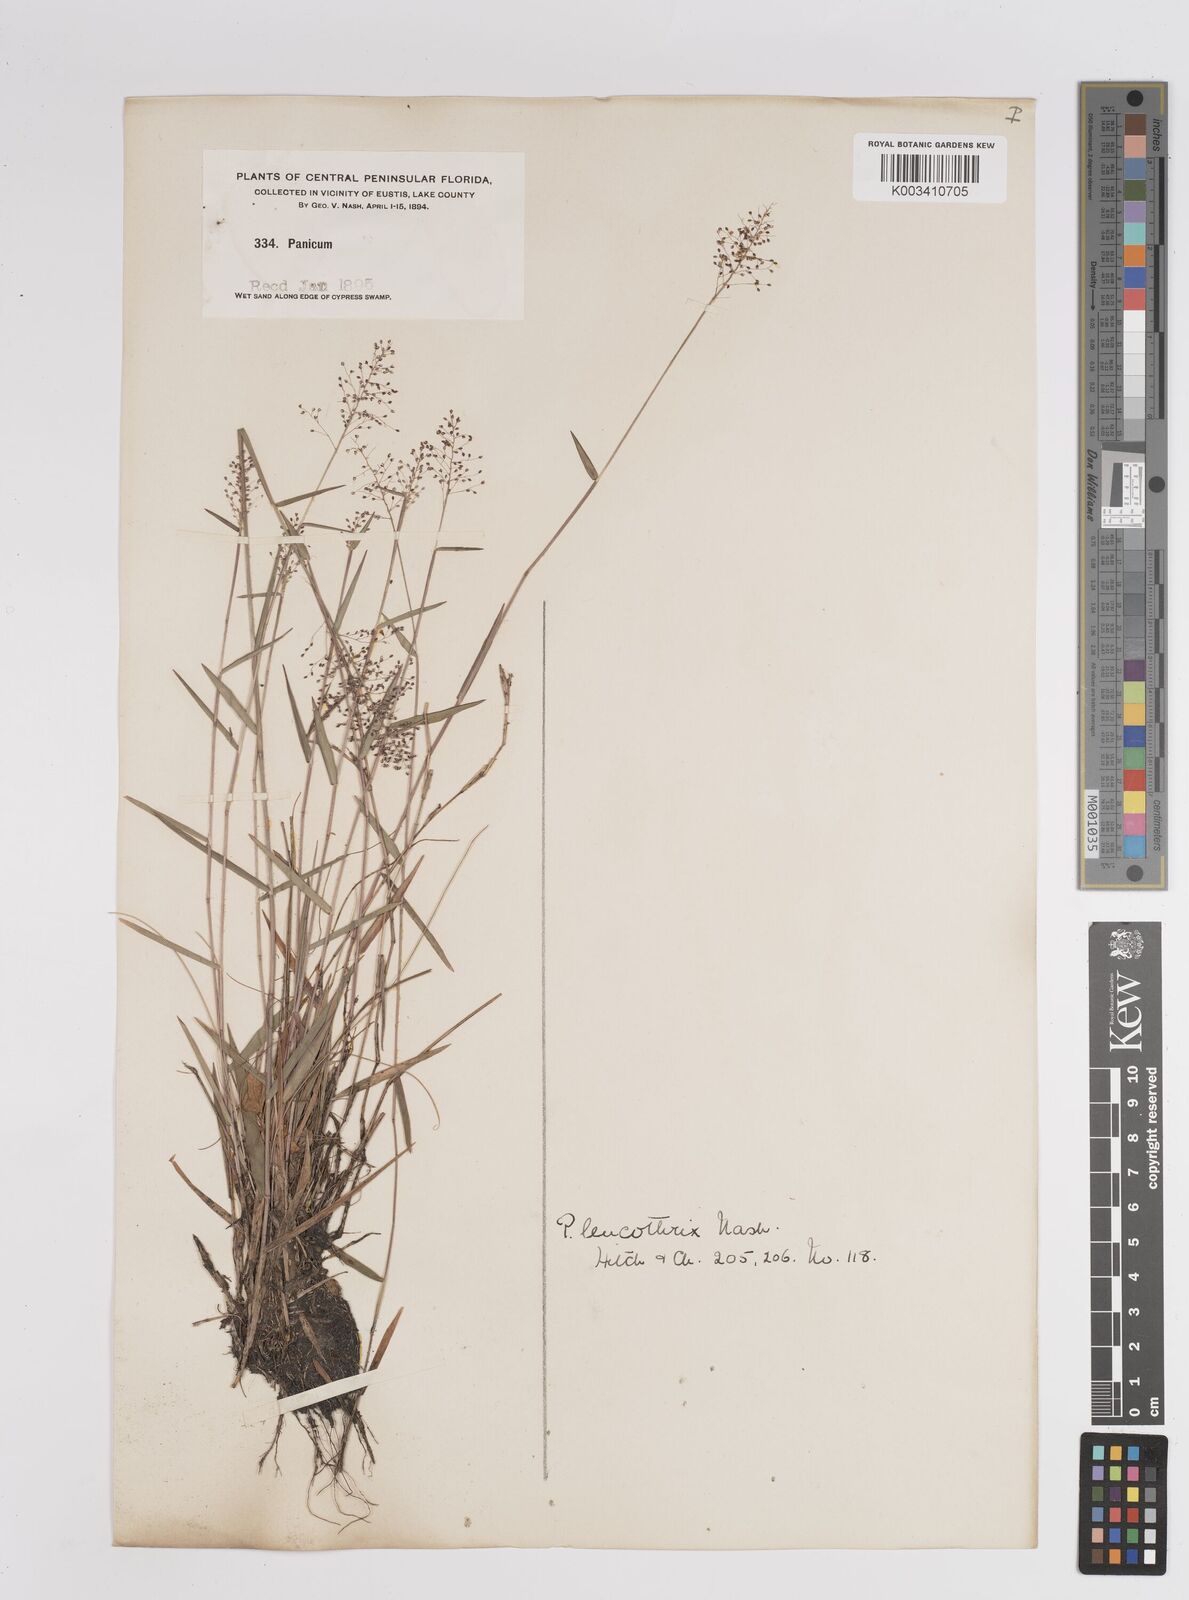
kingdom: Plantae
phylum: Tracheophyta
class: Liliopsida
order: Poales
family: Poaceae
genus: Dichanthelium
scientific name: Dichanthelium leucothrix
